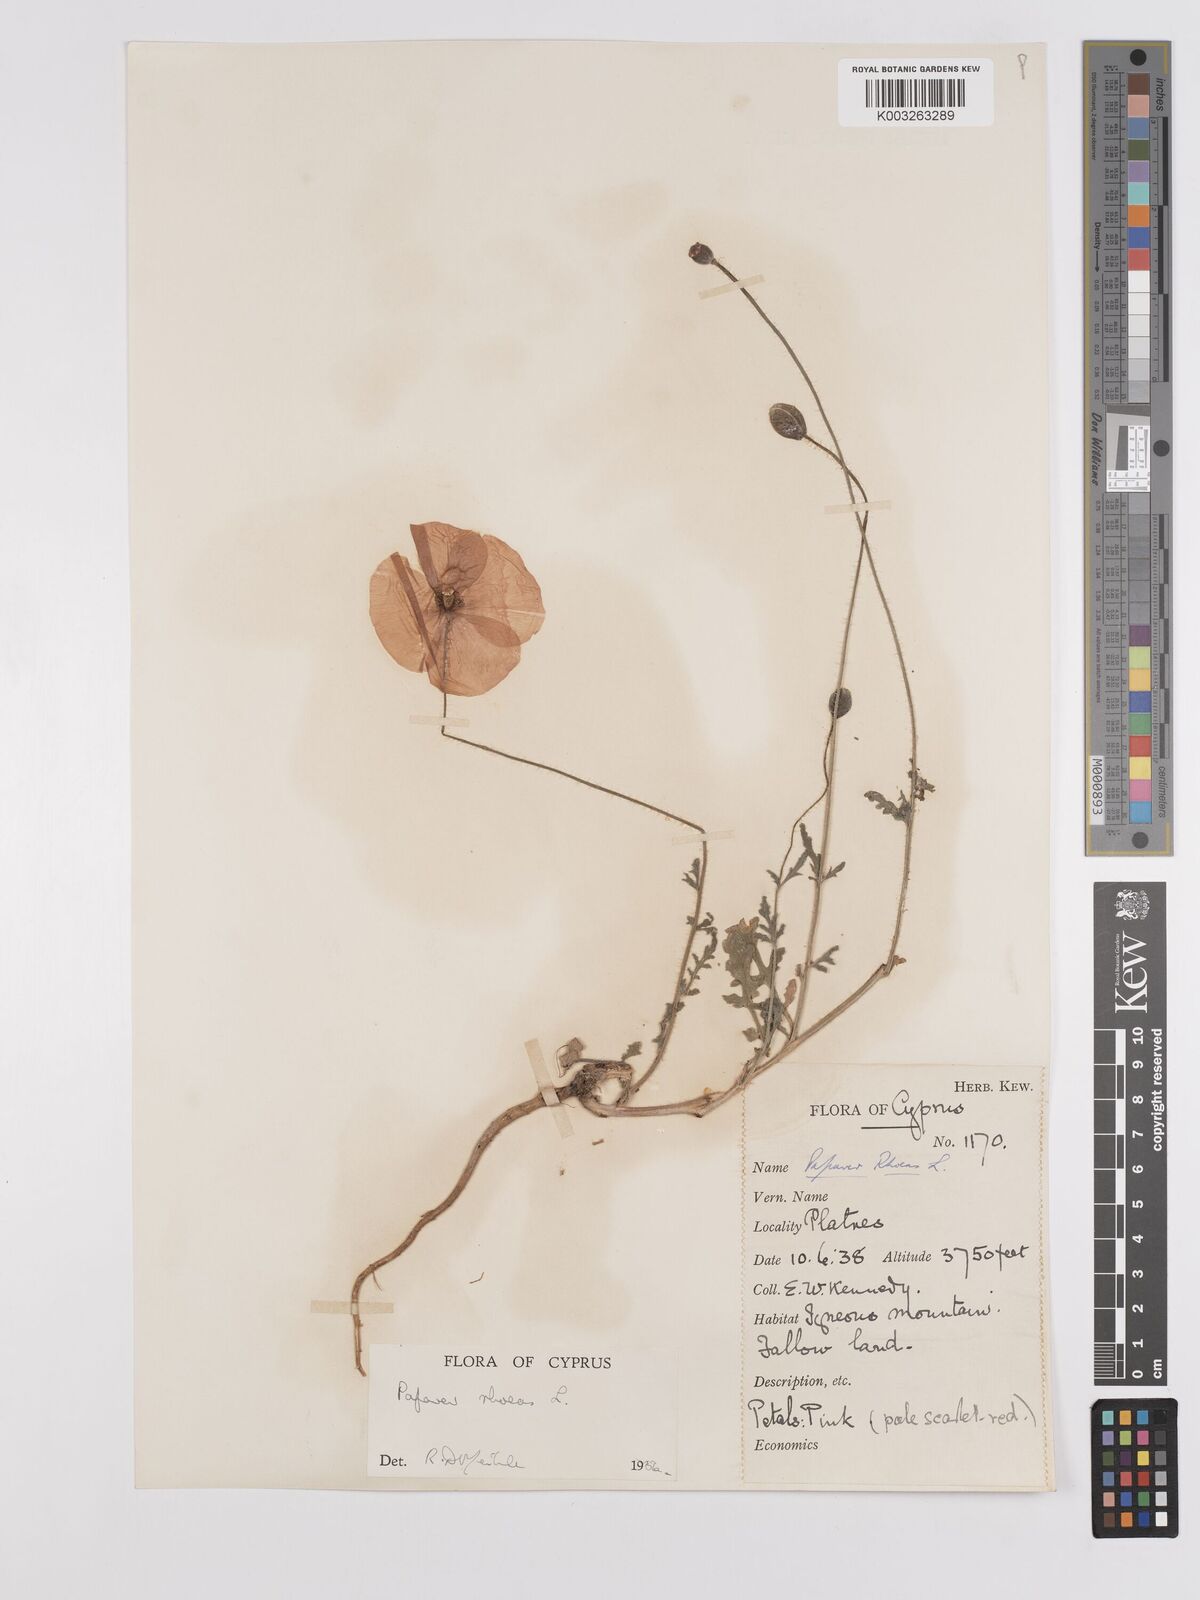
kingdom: Plantae
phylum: Tracheophyta
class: Magnoliopsida
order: Ranunculales
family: Papaveraceae
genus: Papaver
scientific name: Papaver rhoeas
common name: Corn poppy
